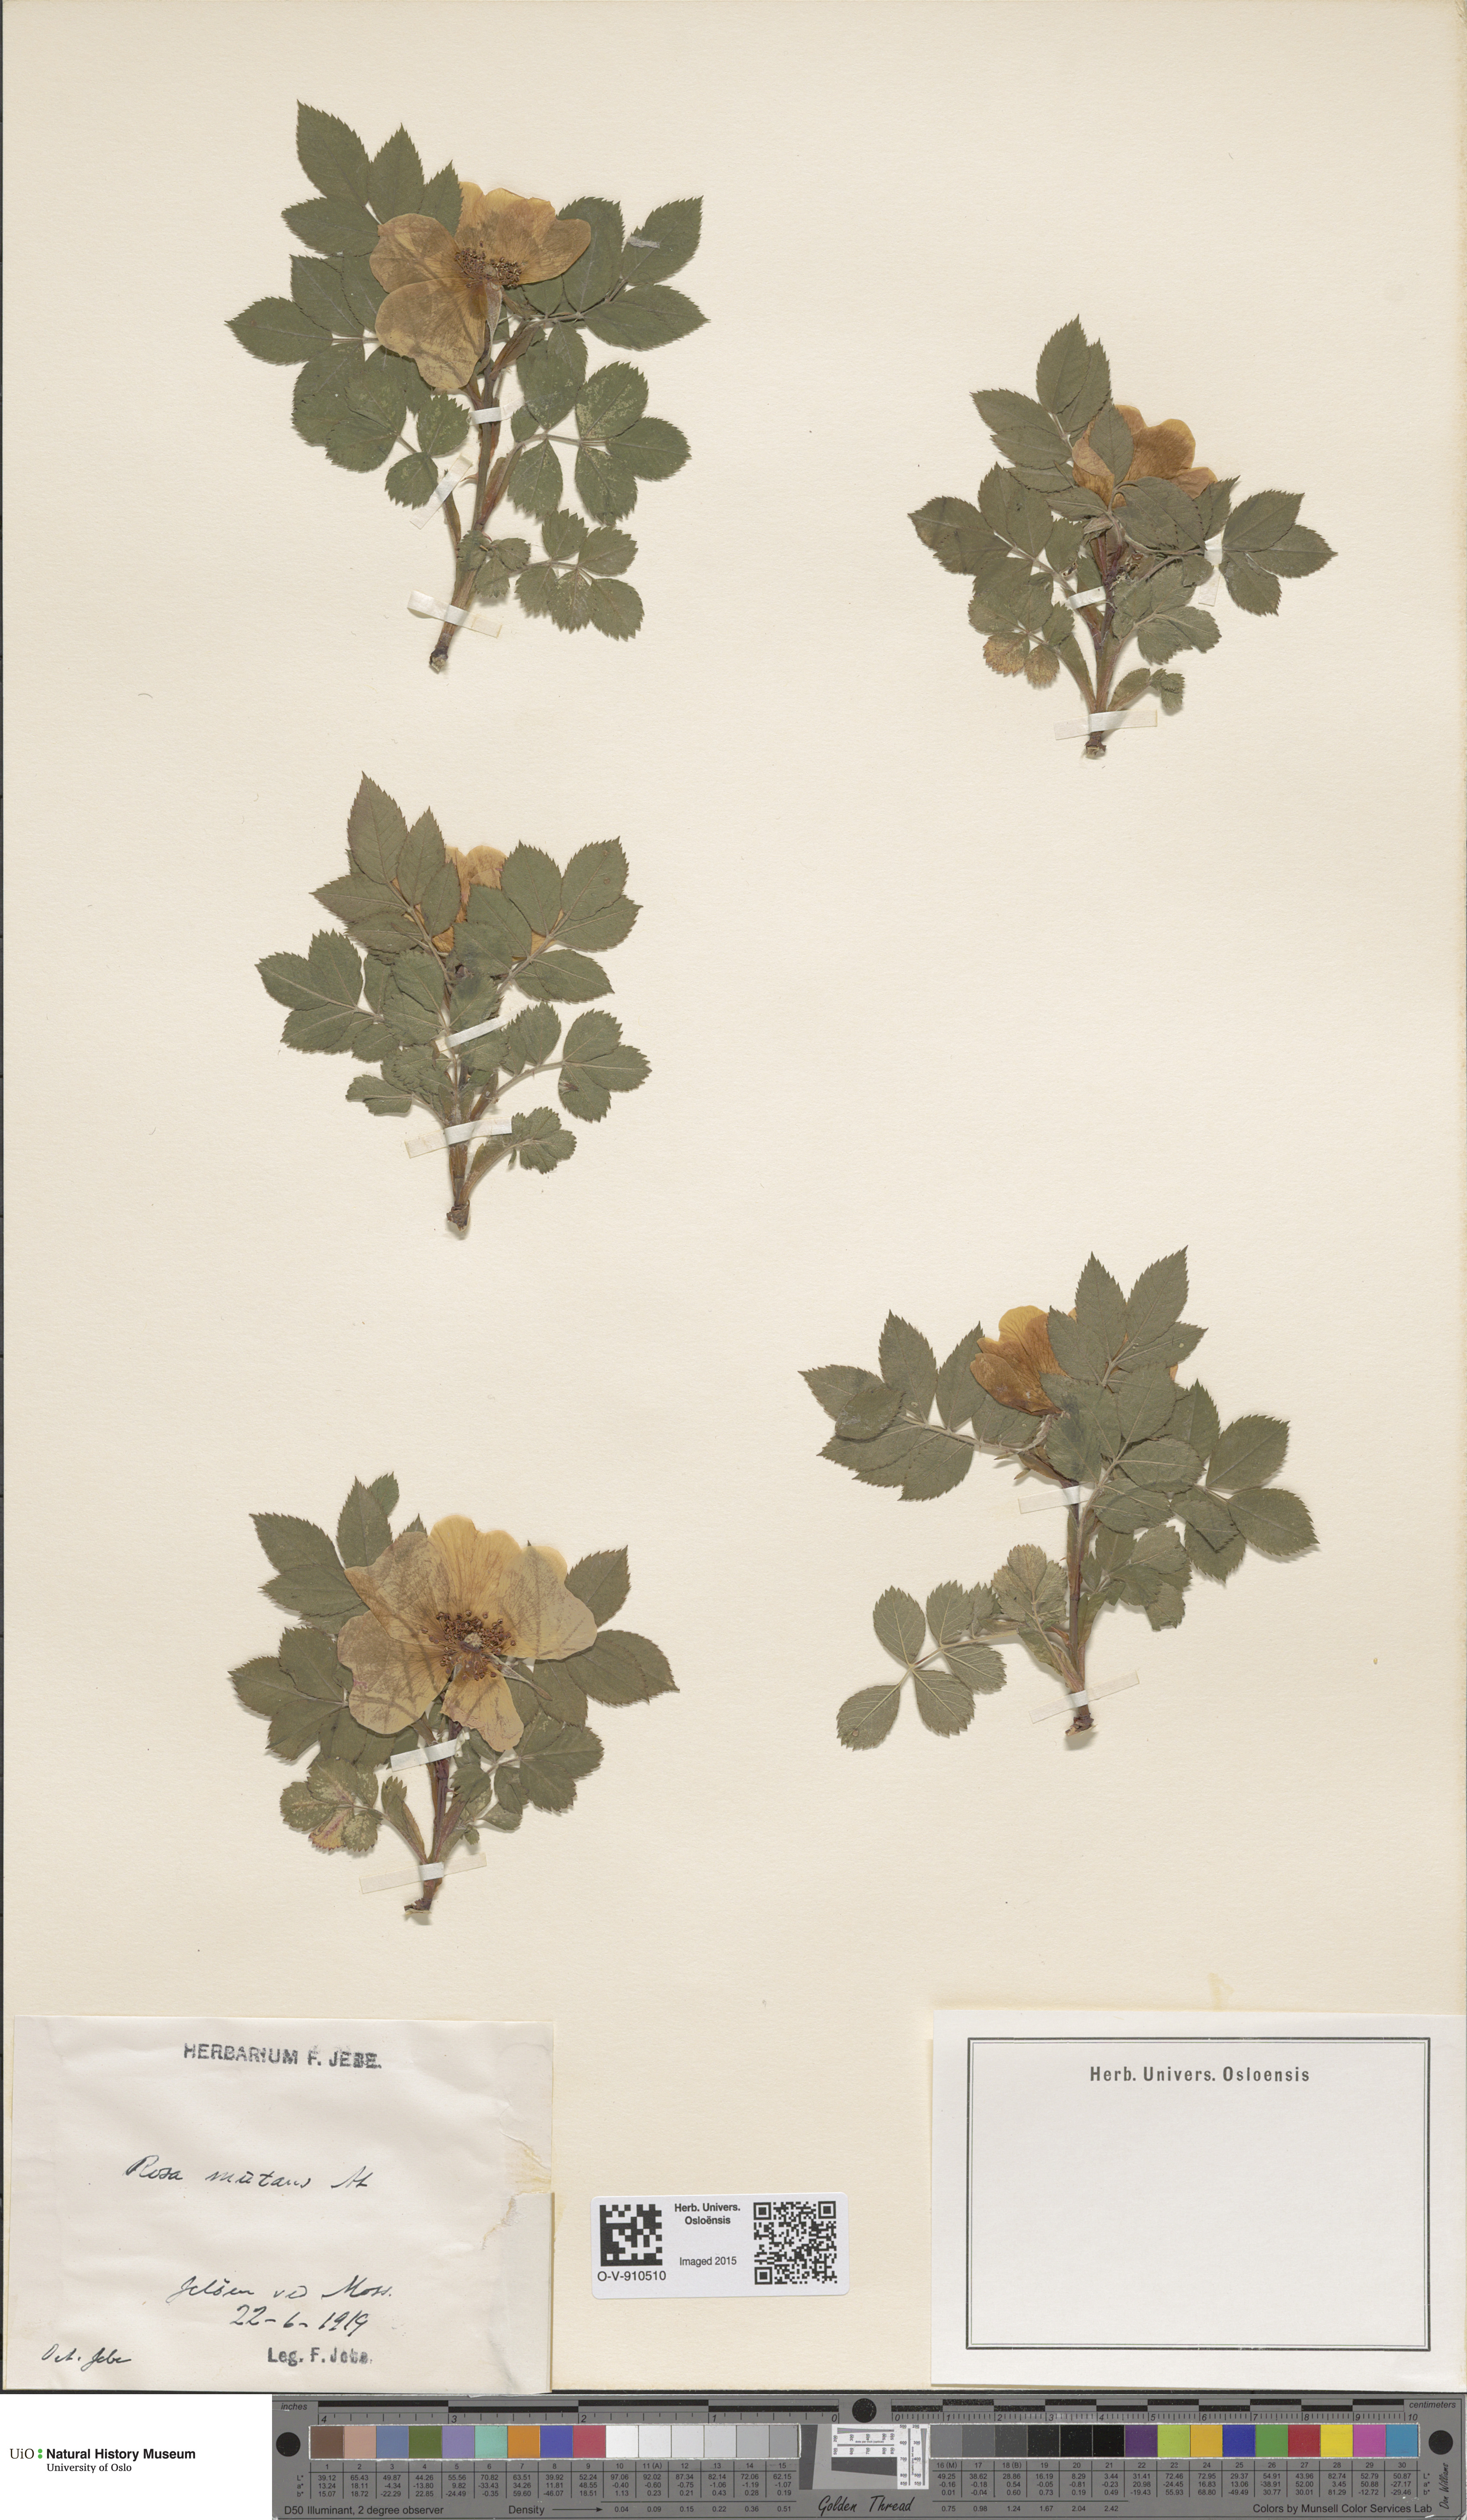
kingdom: Plantae
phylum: Tracheophyta
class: Magnoliopsida
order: Rosales
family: Rosaceae
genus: Rosa
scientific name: Rosa mutans
